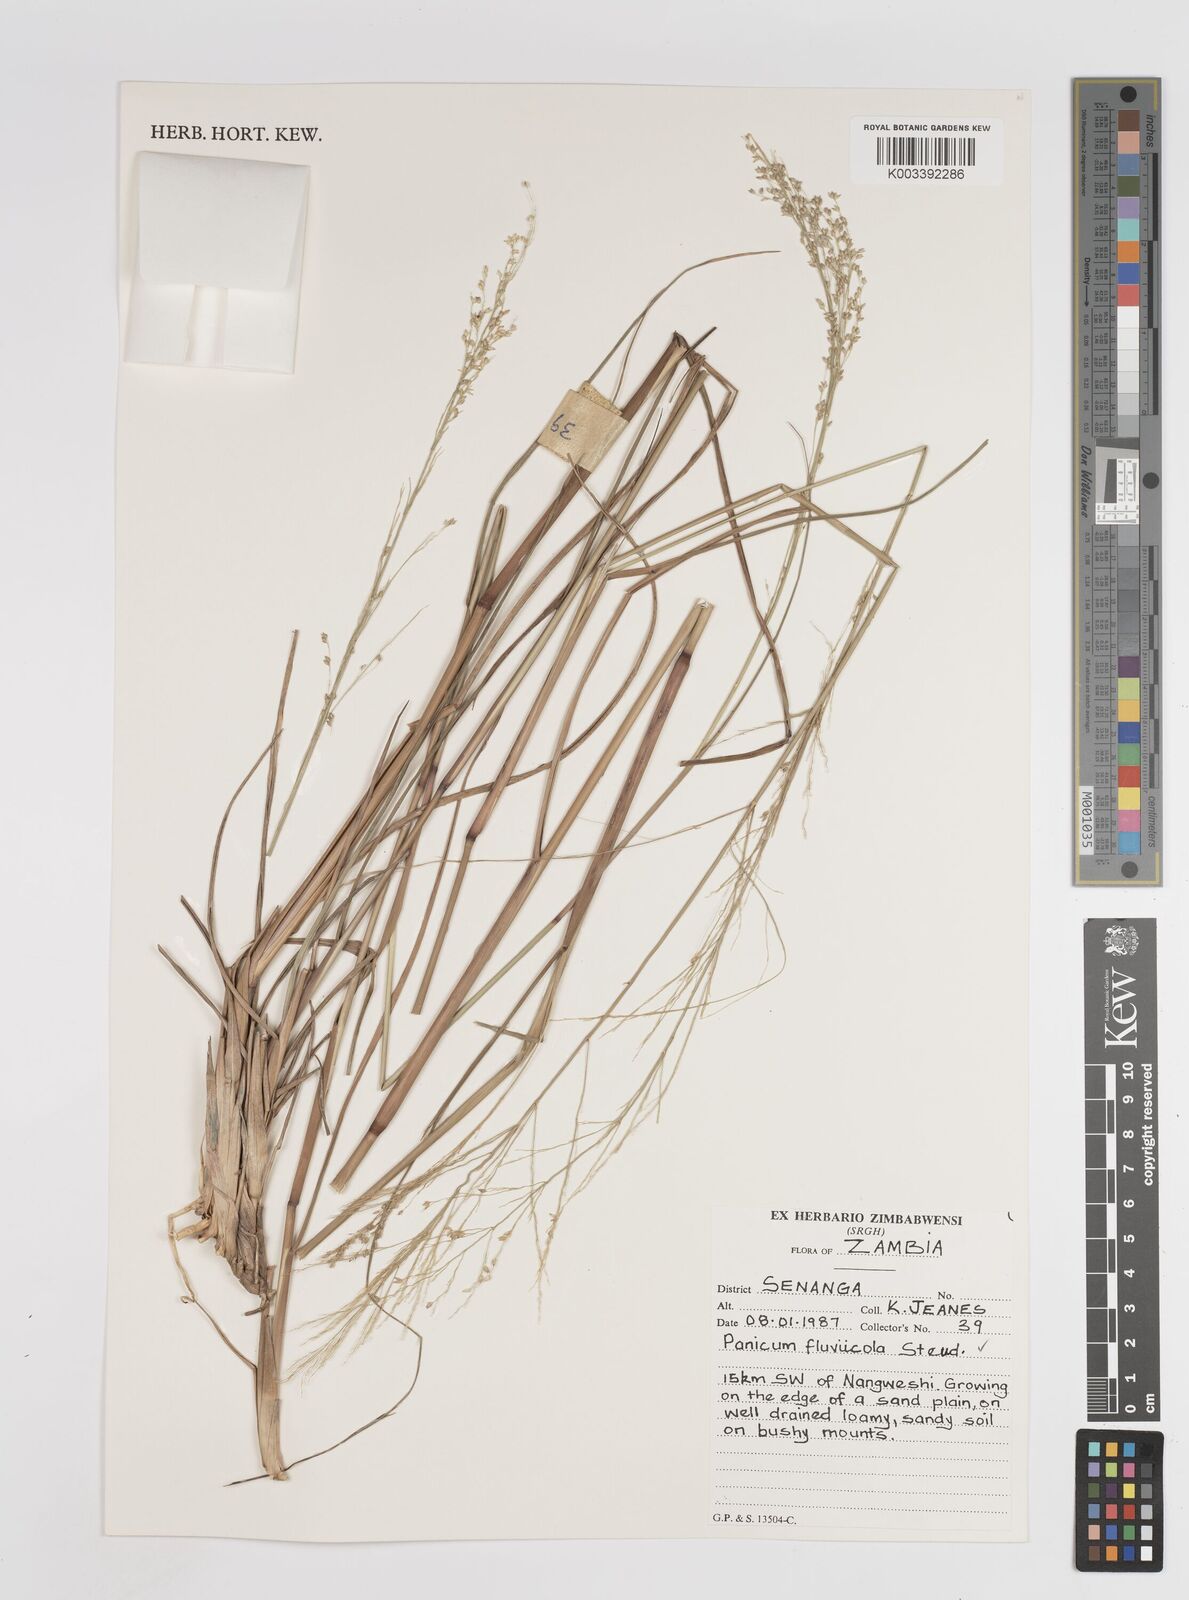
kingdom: Plantae
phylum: Tracheophyta
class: Liliopsida
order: Poales
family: Poaceae
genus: Panicum
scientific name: Panicum fluviicola
